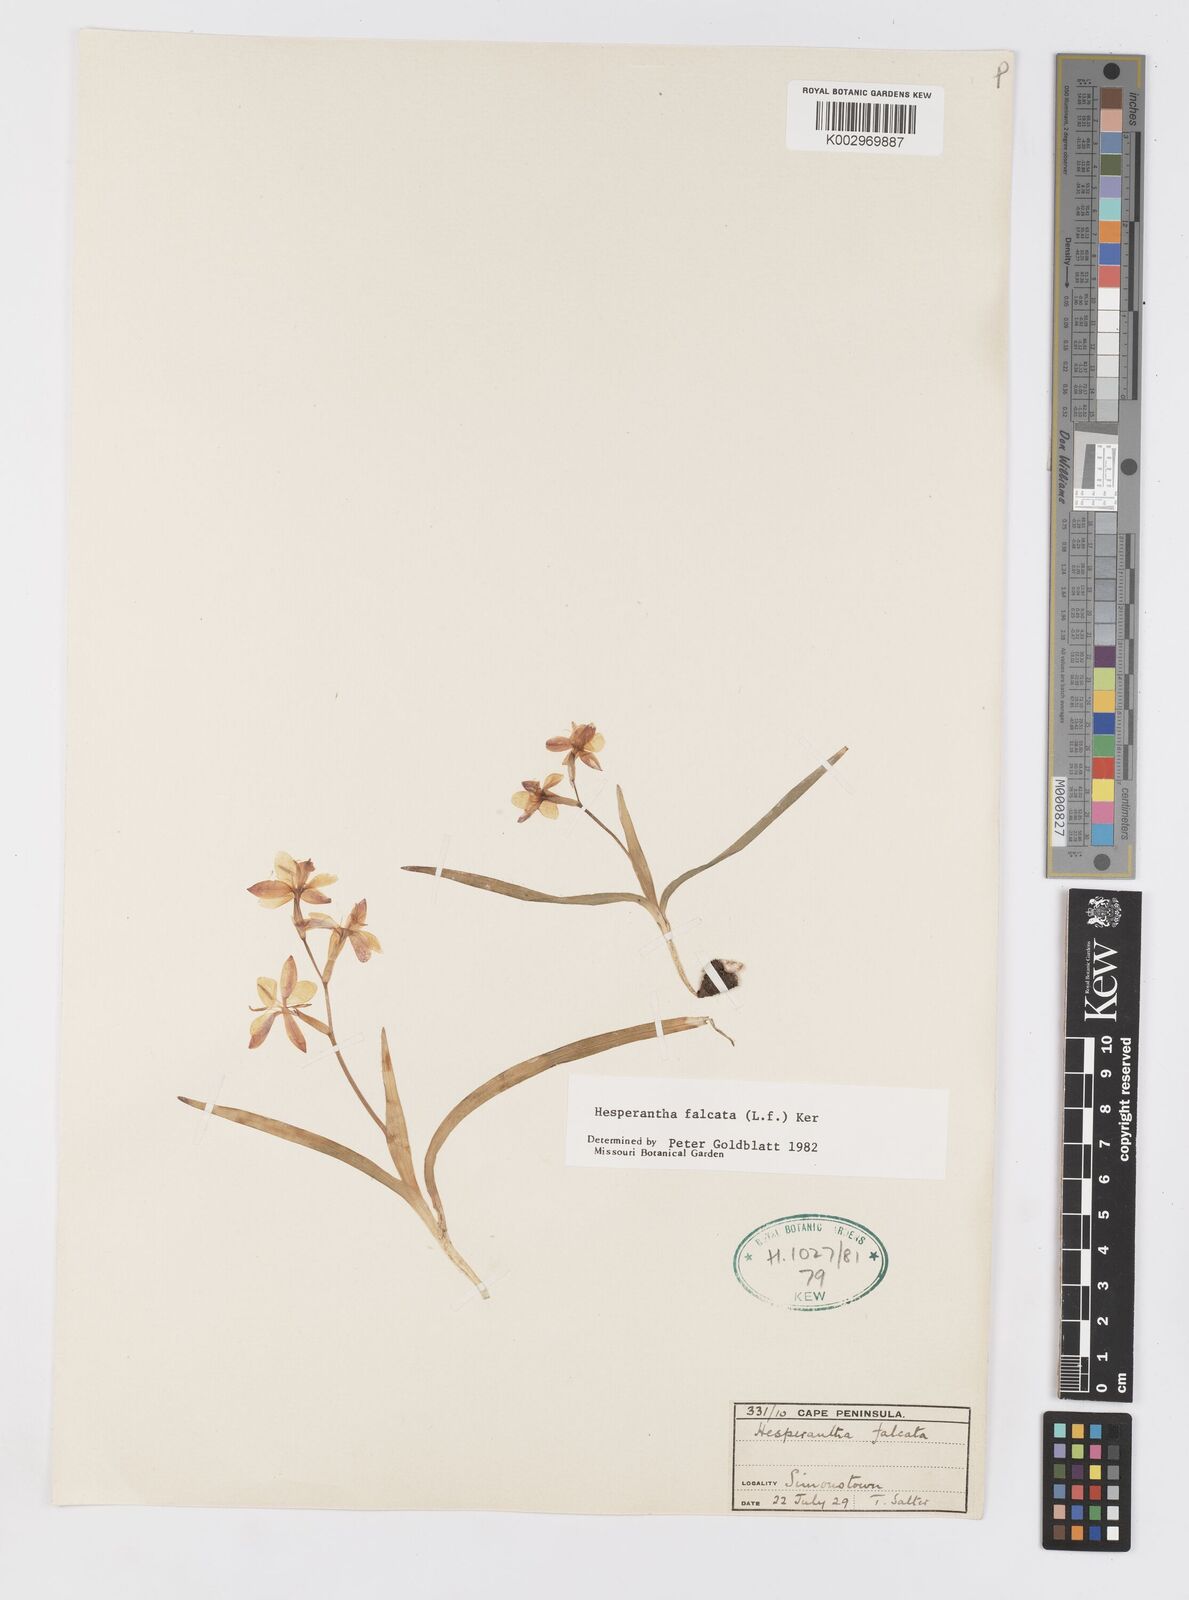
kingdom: Plantae
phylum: Tracheophyta
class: Liliopsida
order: Asparagales
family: Iridaceae
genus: Hesperantha
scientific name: Hesperantha falcata
